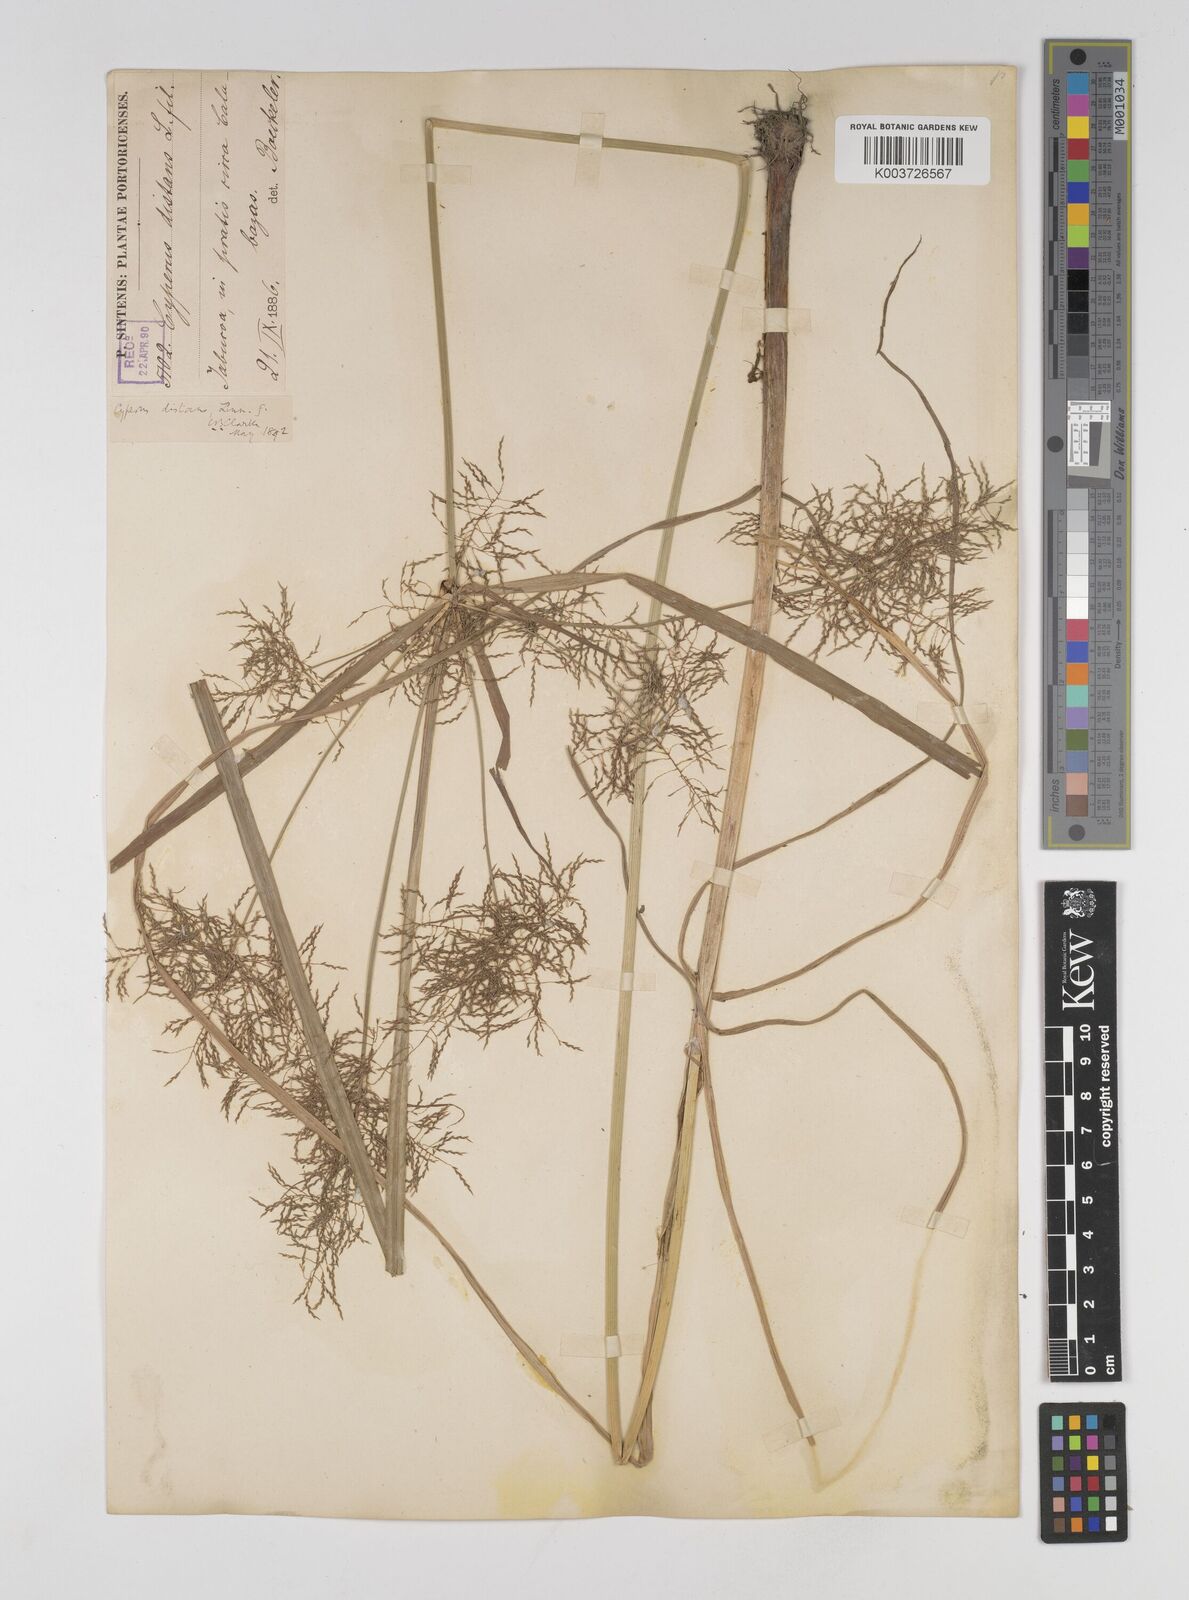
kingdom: Plantae
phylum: Tracheophyta
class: Liliopsida
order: Poales
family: Cyperaceae
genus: Cyperus
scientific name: Cyperus distans
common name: Slender cyperus
